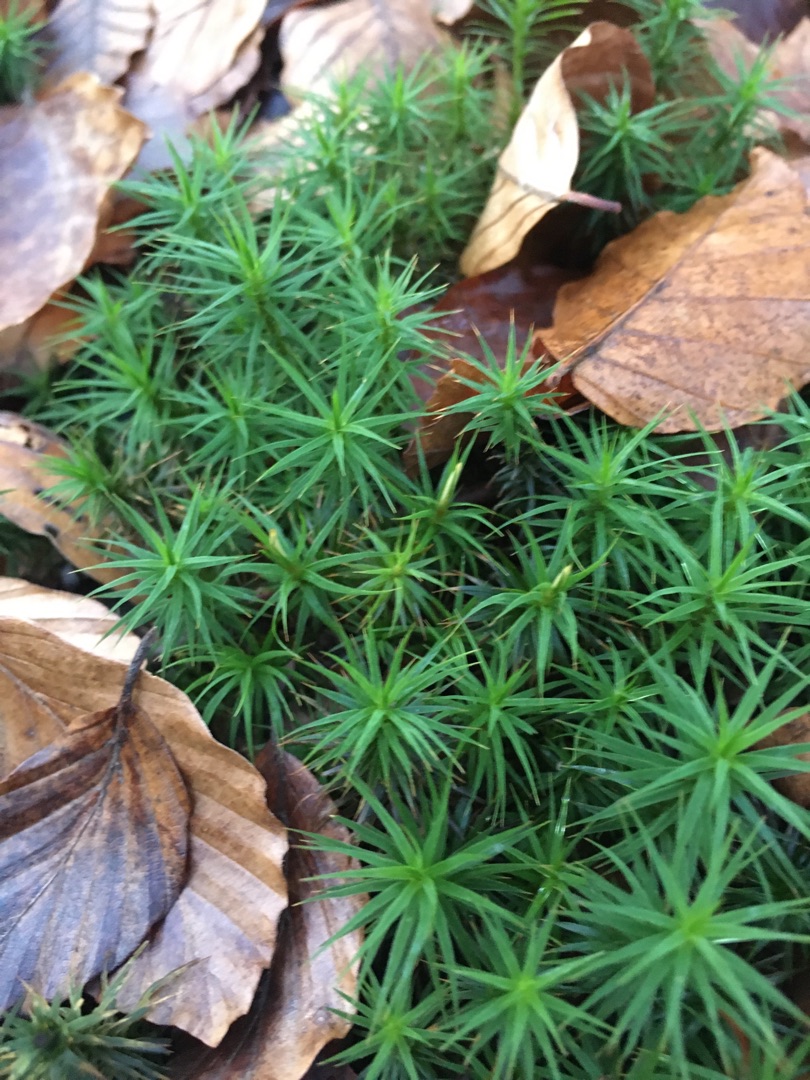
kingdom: Plantae
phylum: Bryophyta
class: Polytrichopsida
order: Polytrichales
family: Polytrichaceae
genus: Polytrichum
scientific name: Polytrichum formosum
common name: Skov-jomfruhår
